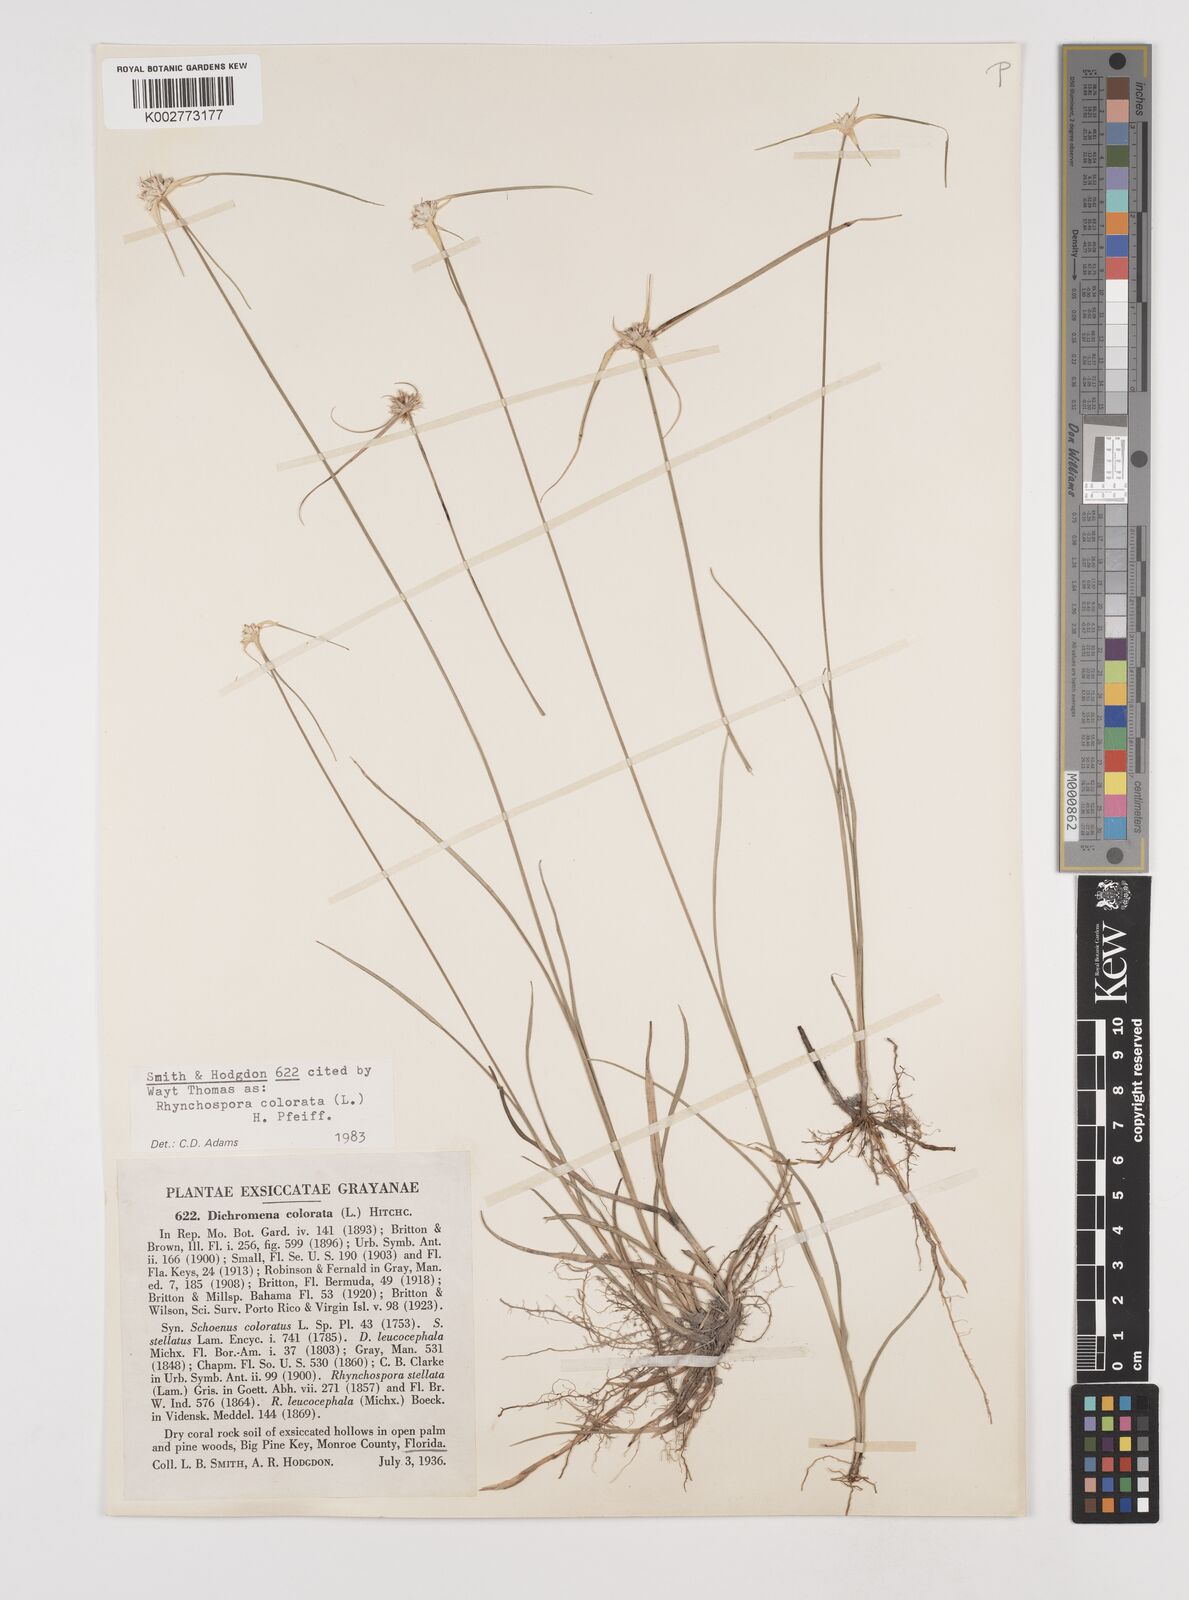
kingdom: Plantae
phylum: Tracheophyta
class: Liliopsida
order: Poales
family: Cyperaceae
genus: Rhynchospora
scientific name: Rhynchospora colorata
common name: Star sedge
